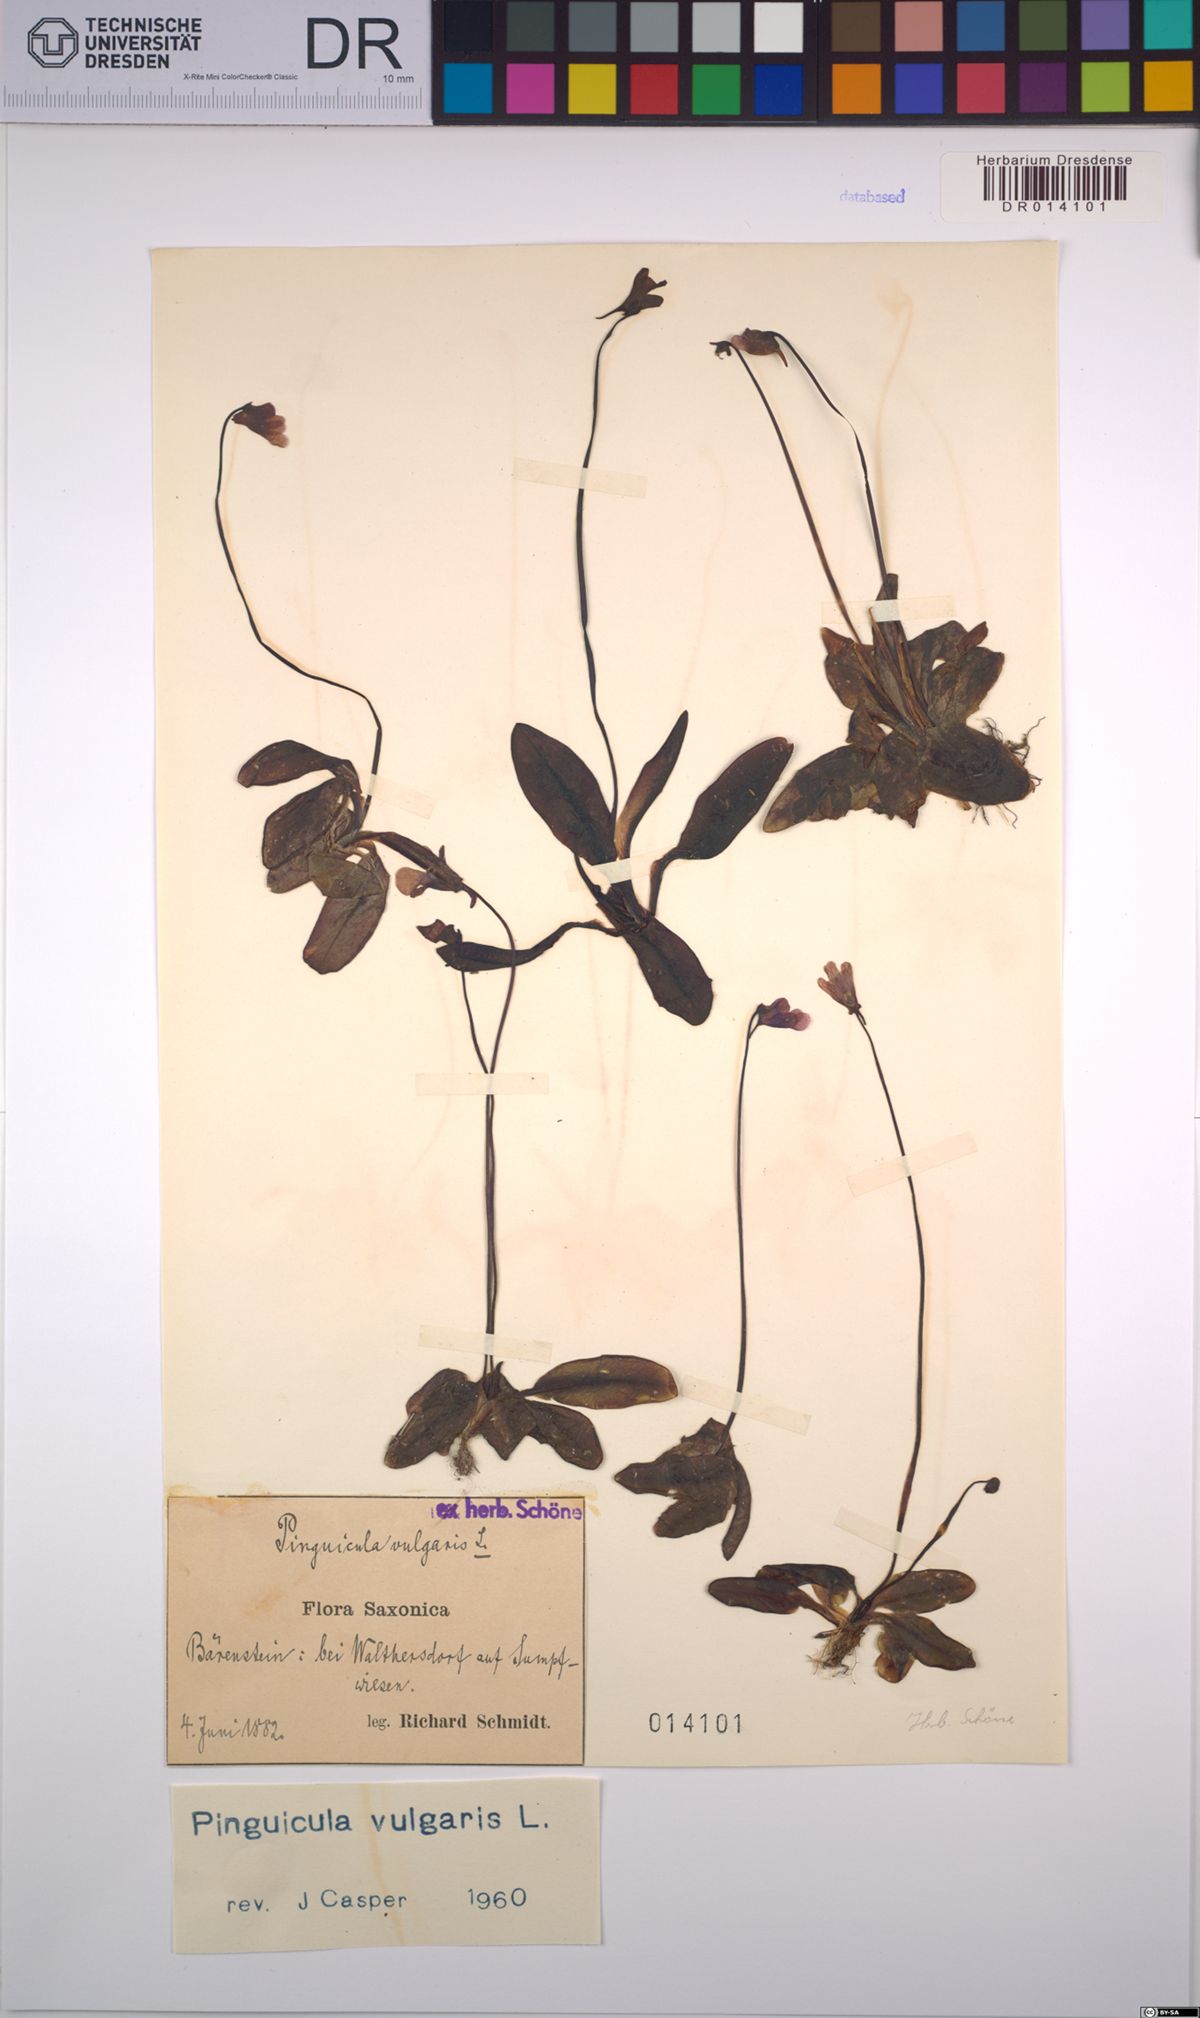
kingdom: Plantae
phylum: Tracheophyta
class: Magnoliopsida
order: Lamiales
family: Lentibulariaceae
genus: Pinguicula
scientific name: Pinguicula vulgaris
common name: Common butterwort
